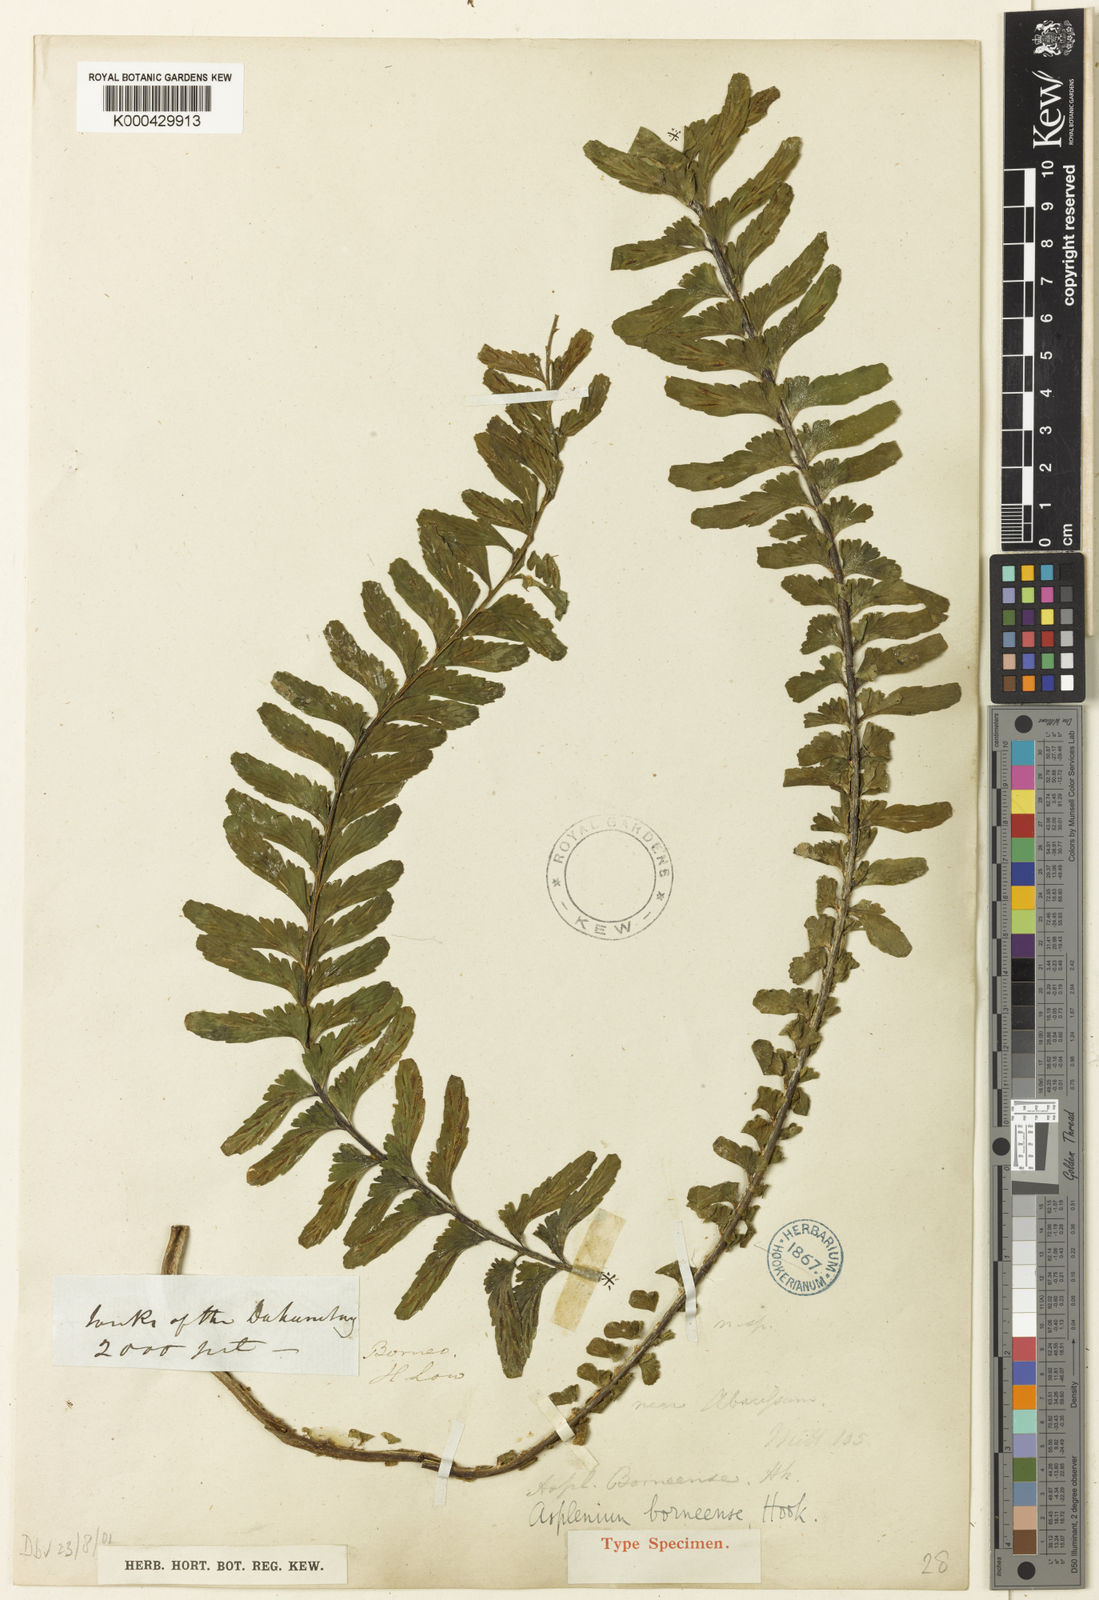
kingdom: Plantae
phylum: Tracheophyta
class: Polypodiopsida
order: Polypodiales
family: Aspleniaceae
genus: Asplenium
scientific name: Asplenium borneense
